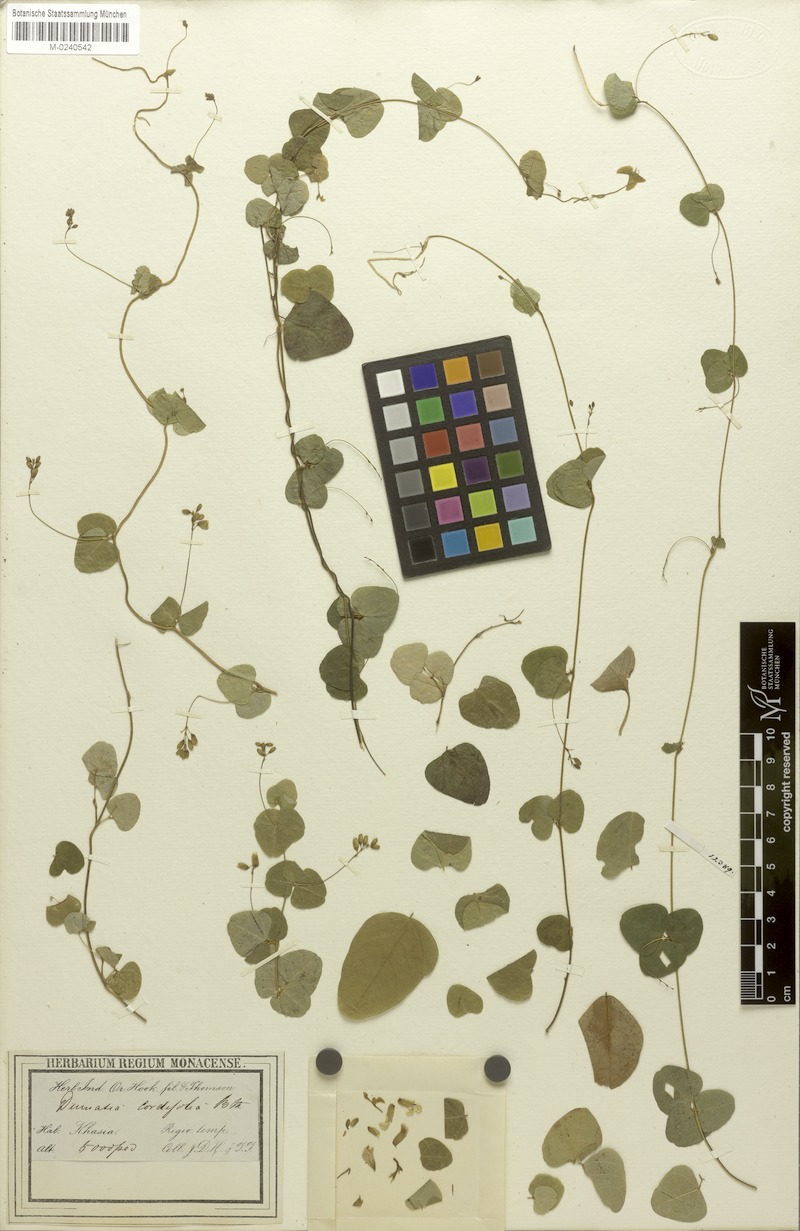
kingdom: Plantae
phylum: Tracheophyta
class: Magnoliopsida
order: Fabales
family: Fabaceae
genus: Dumasia
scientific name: Dumasia cordifolia
